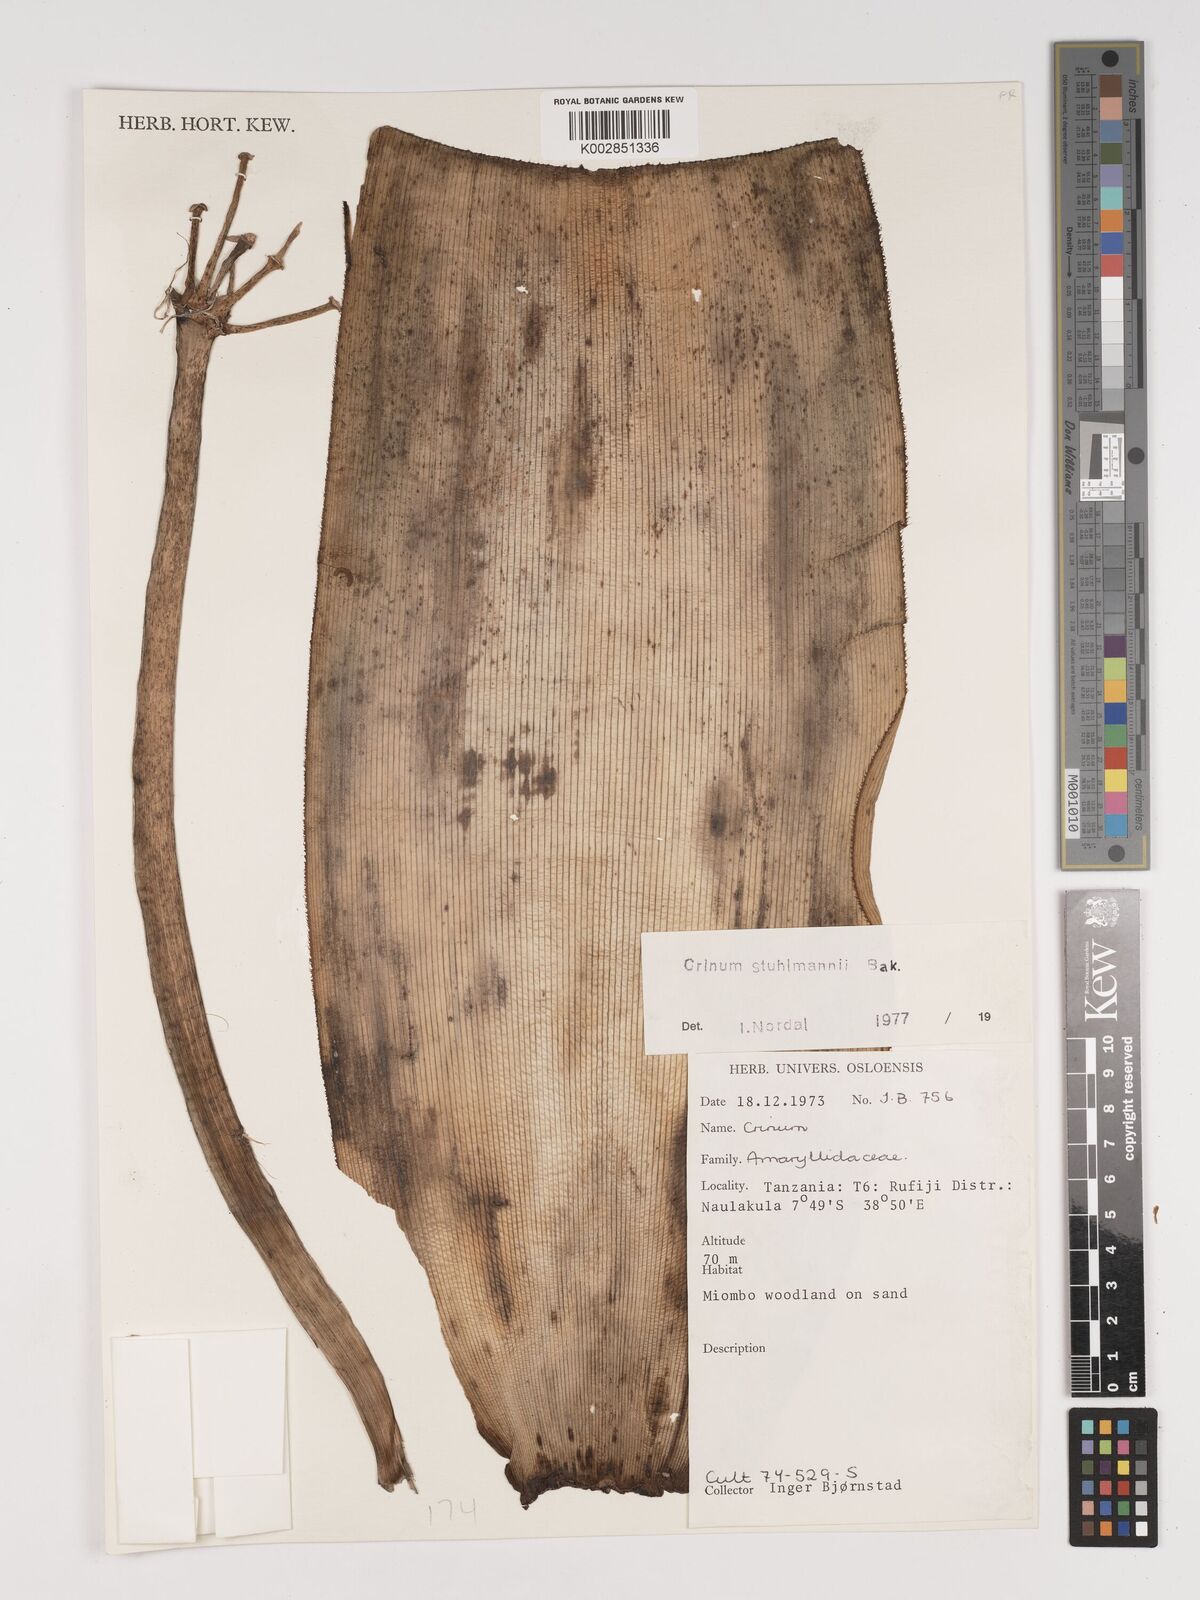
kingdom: Plantae
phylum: Tracheophyta
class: Liliopsida
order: Asparagales
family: Amaryllidaceae
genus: Crinum
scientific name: Crinum stuhlmannii
